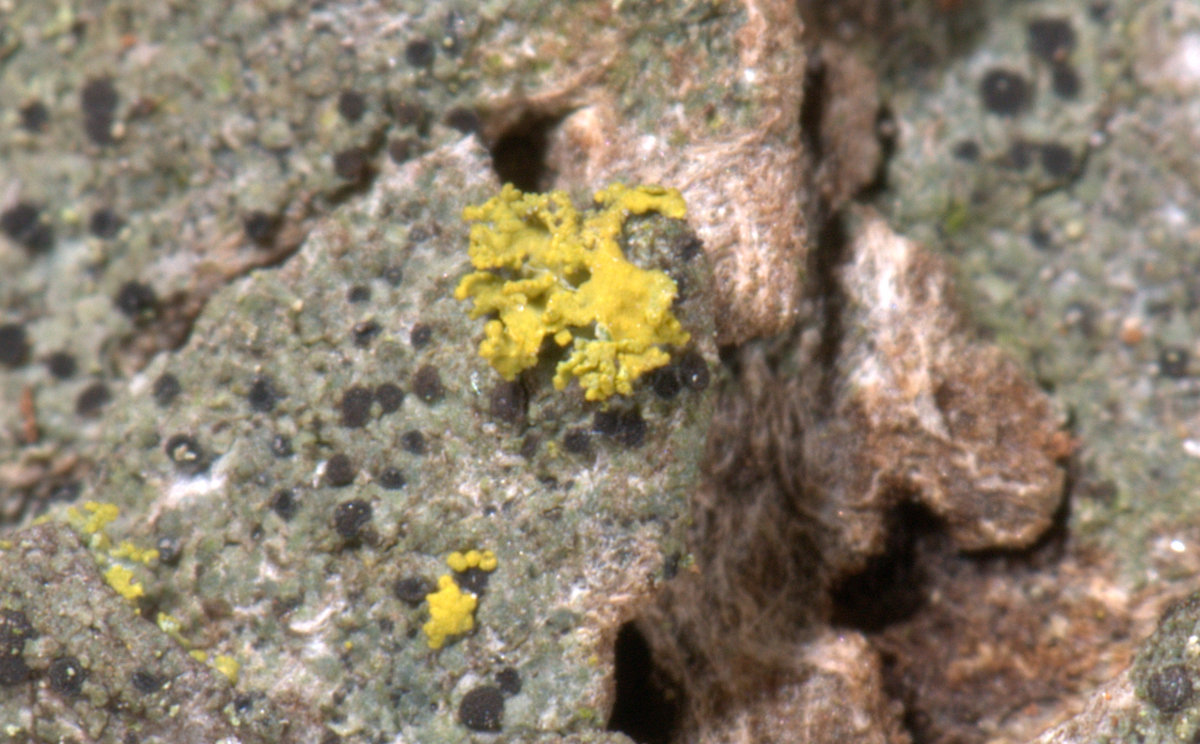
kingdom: Fungi
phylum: Ascomycota
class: Lecanoromycetes
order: Teloschistales
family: Teloschistaceae
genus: Polycauliona
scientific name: Polycauliona candelaria
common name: tue-orangelav
